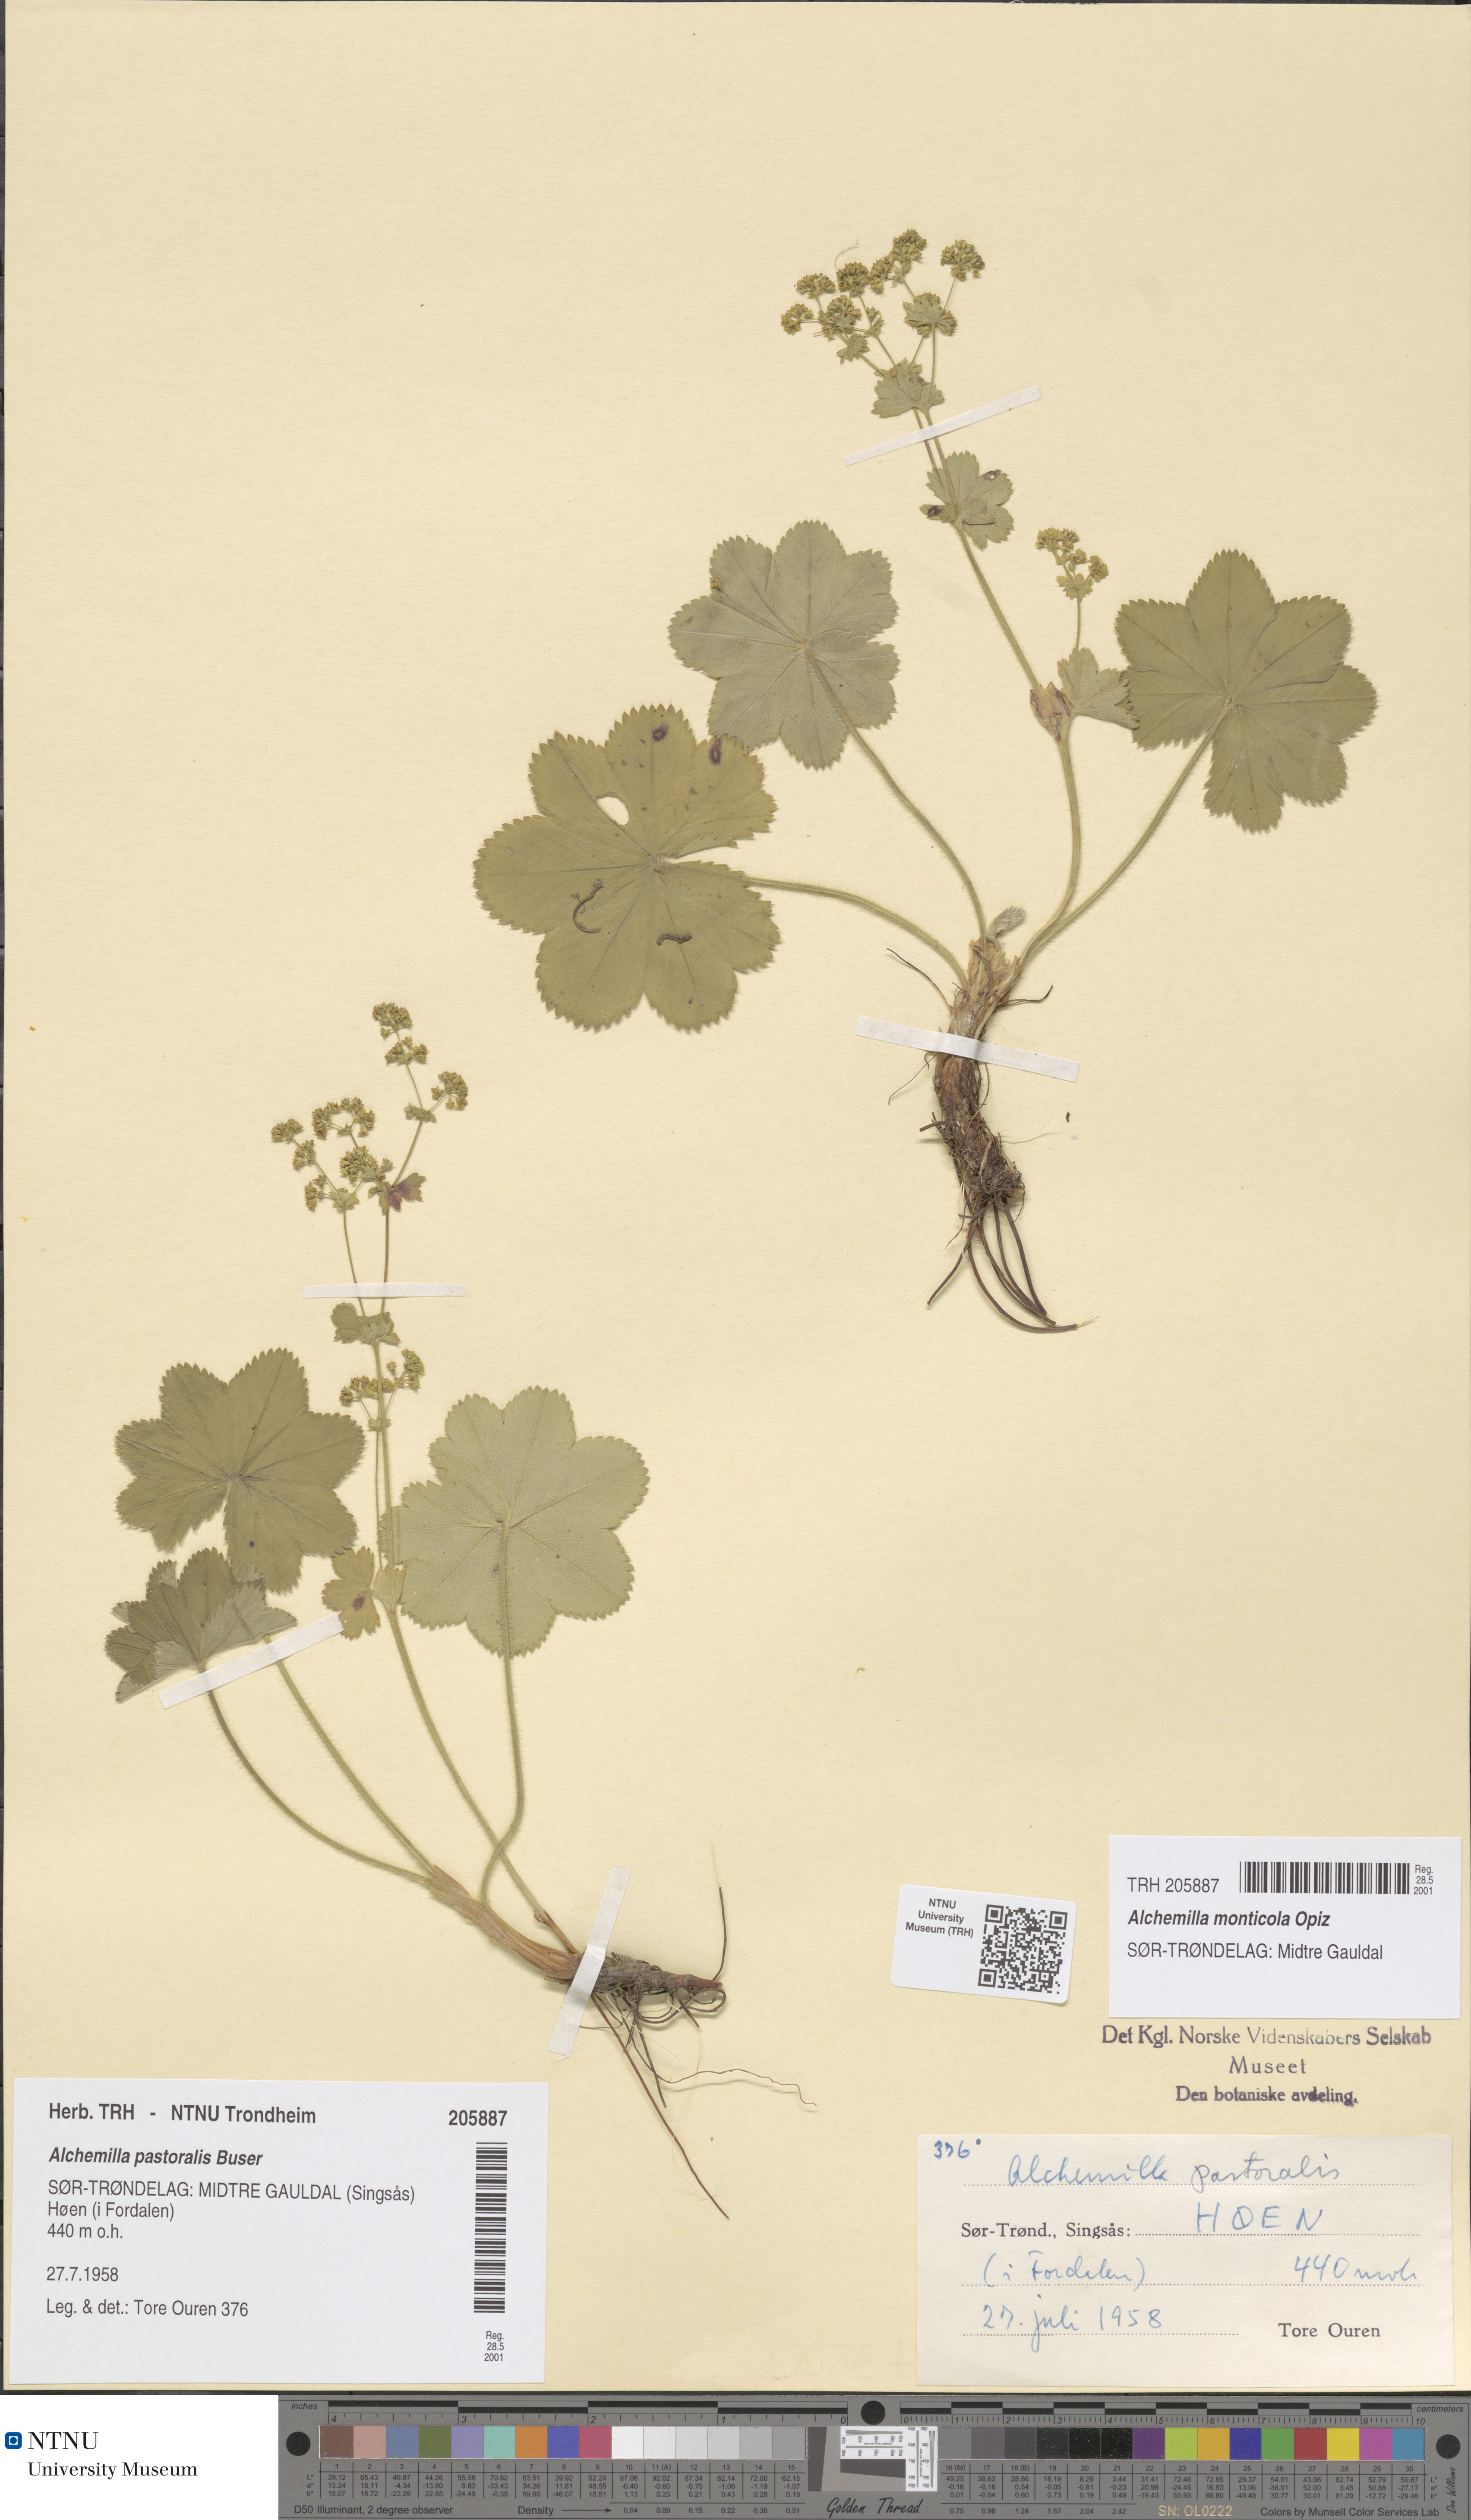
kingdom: Plantae
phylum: Tracheophyta
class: Magnoliopsida
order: Rosales
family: Rosaceae
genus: Alchemilla
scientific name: Alchemilla monticola
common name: Hairy lady's mantle
